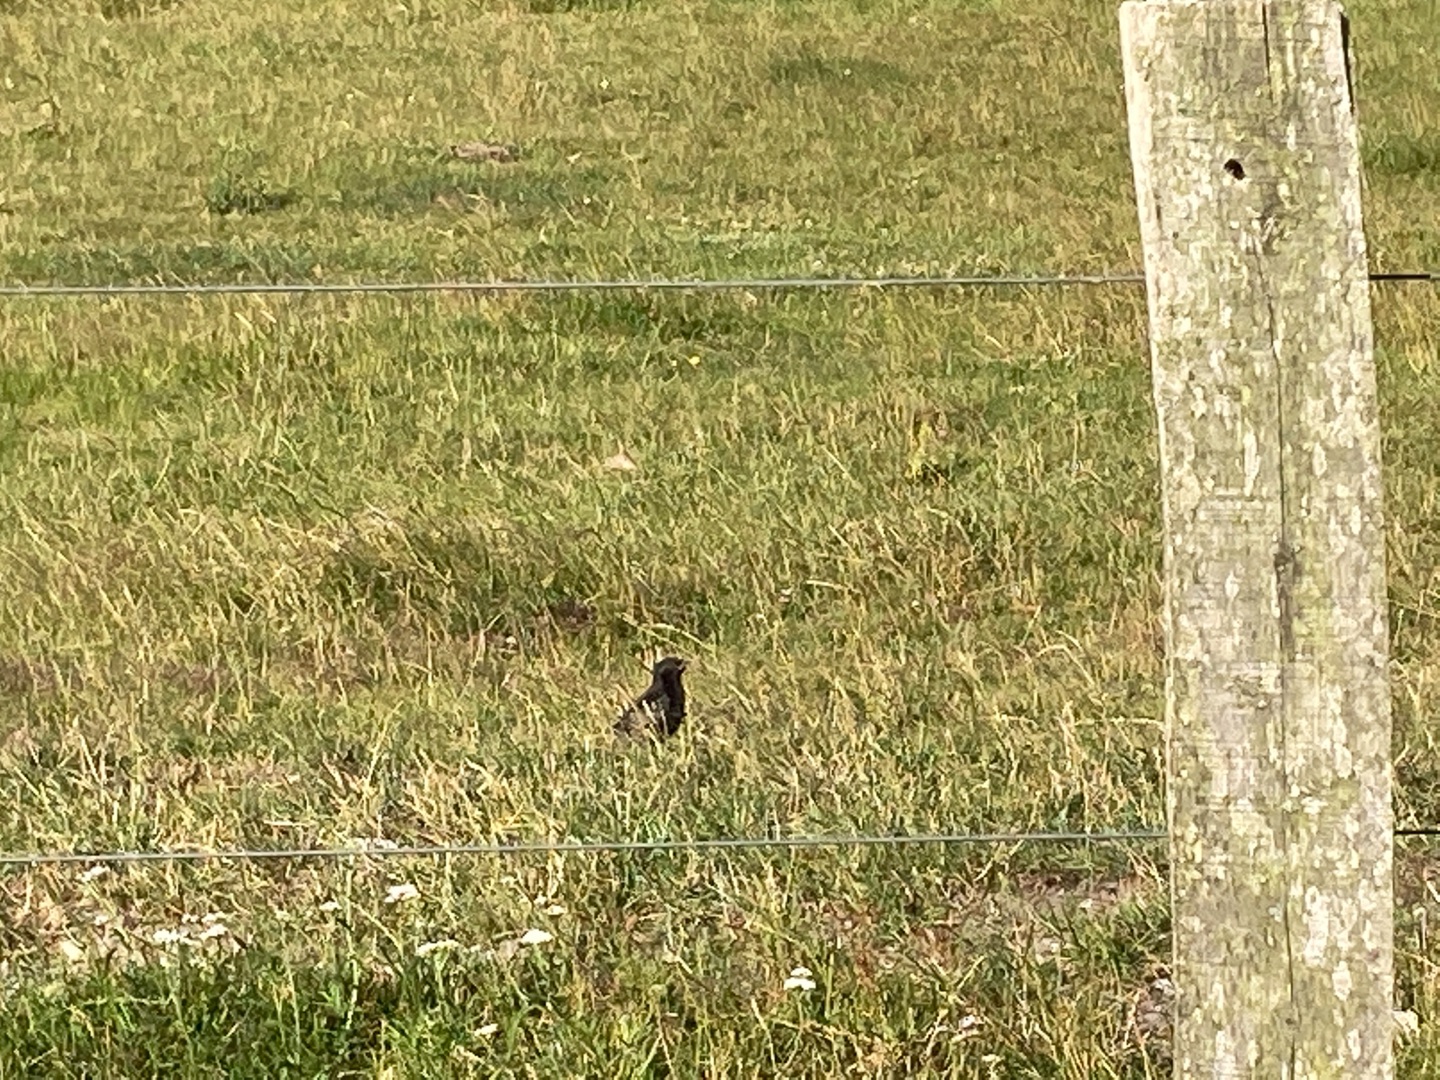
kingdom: Animalia
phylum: Chordata
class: Aves
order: Passeriformes
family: Sturnidae
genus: Sturnus
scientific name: Sturnus vulgaris
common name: Stær
